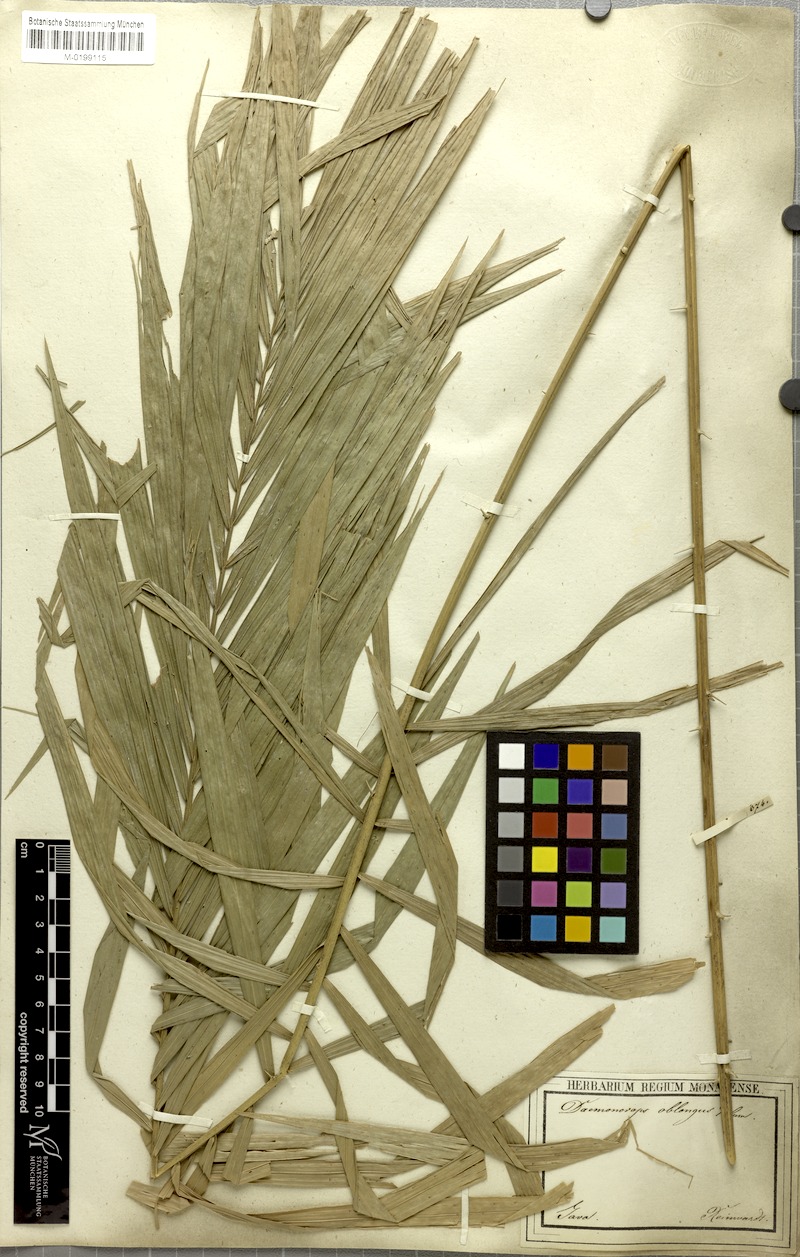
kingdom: Plantae
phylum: Tracheophyta
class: Liliopsida
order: Arecales
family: Arecaceae
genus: Calamus
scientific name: Calamus oblongus
